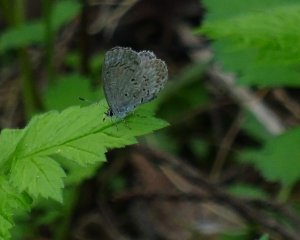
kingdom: Animalia
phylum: Arthropoda
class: Insecta
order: Lepidoptera
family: Lycaenidae
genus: Celastrina
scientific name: Celastrina lucia
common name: Northern Spring Azure
